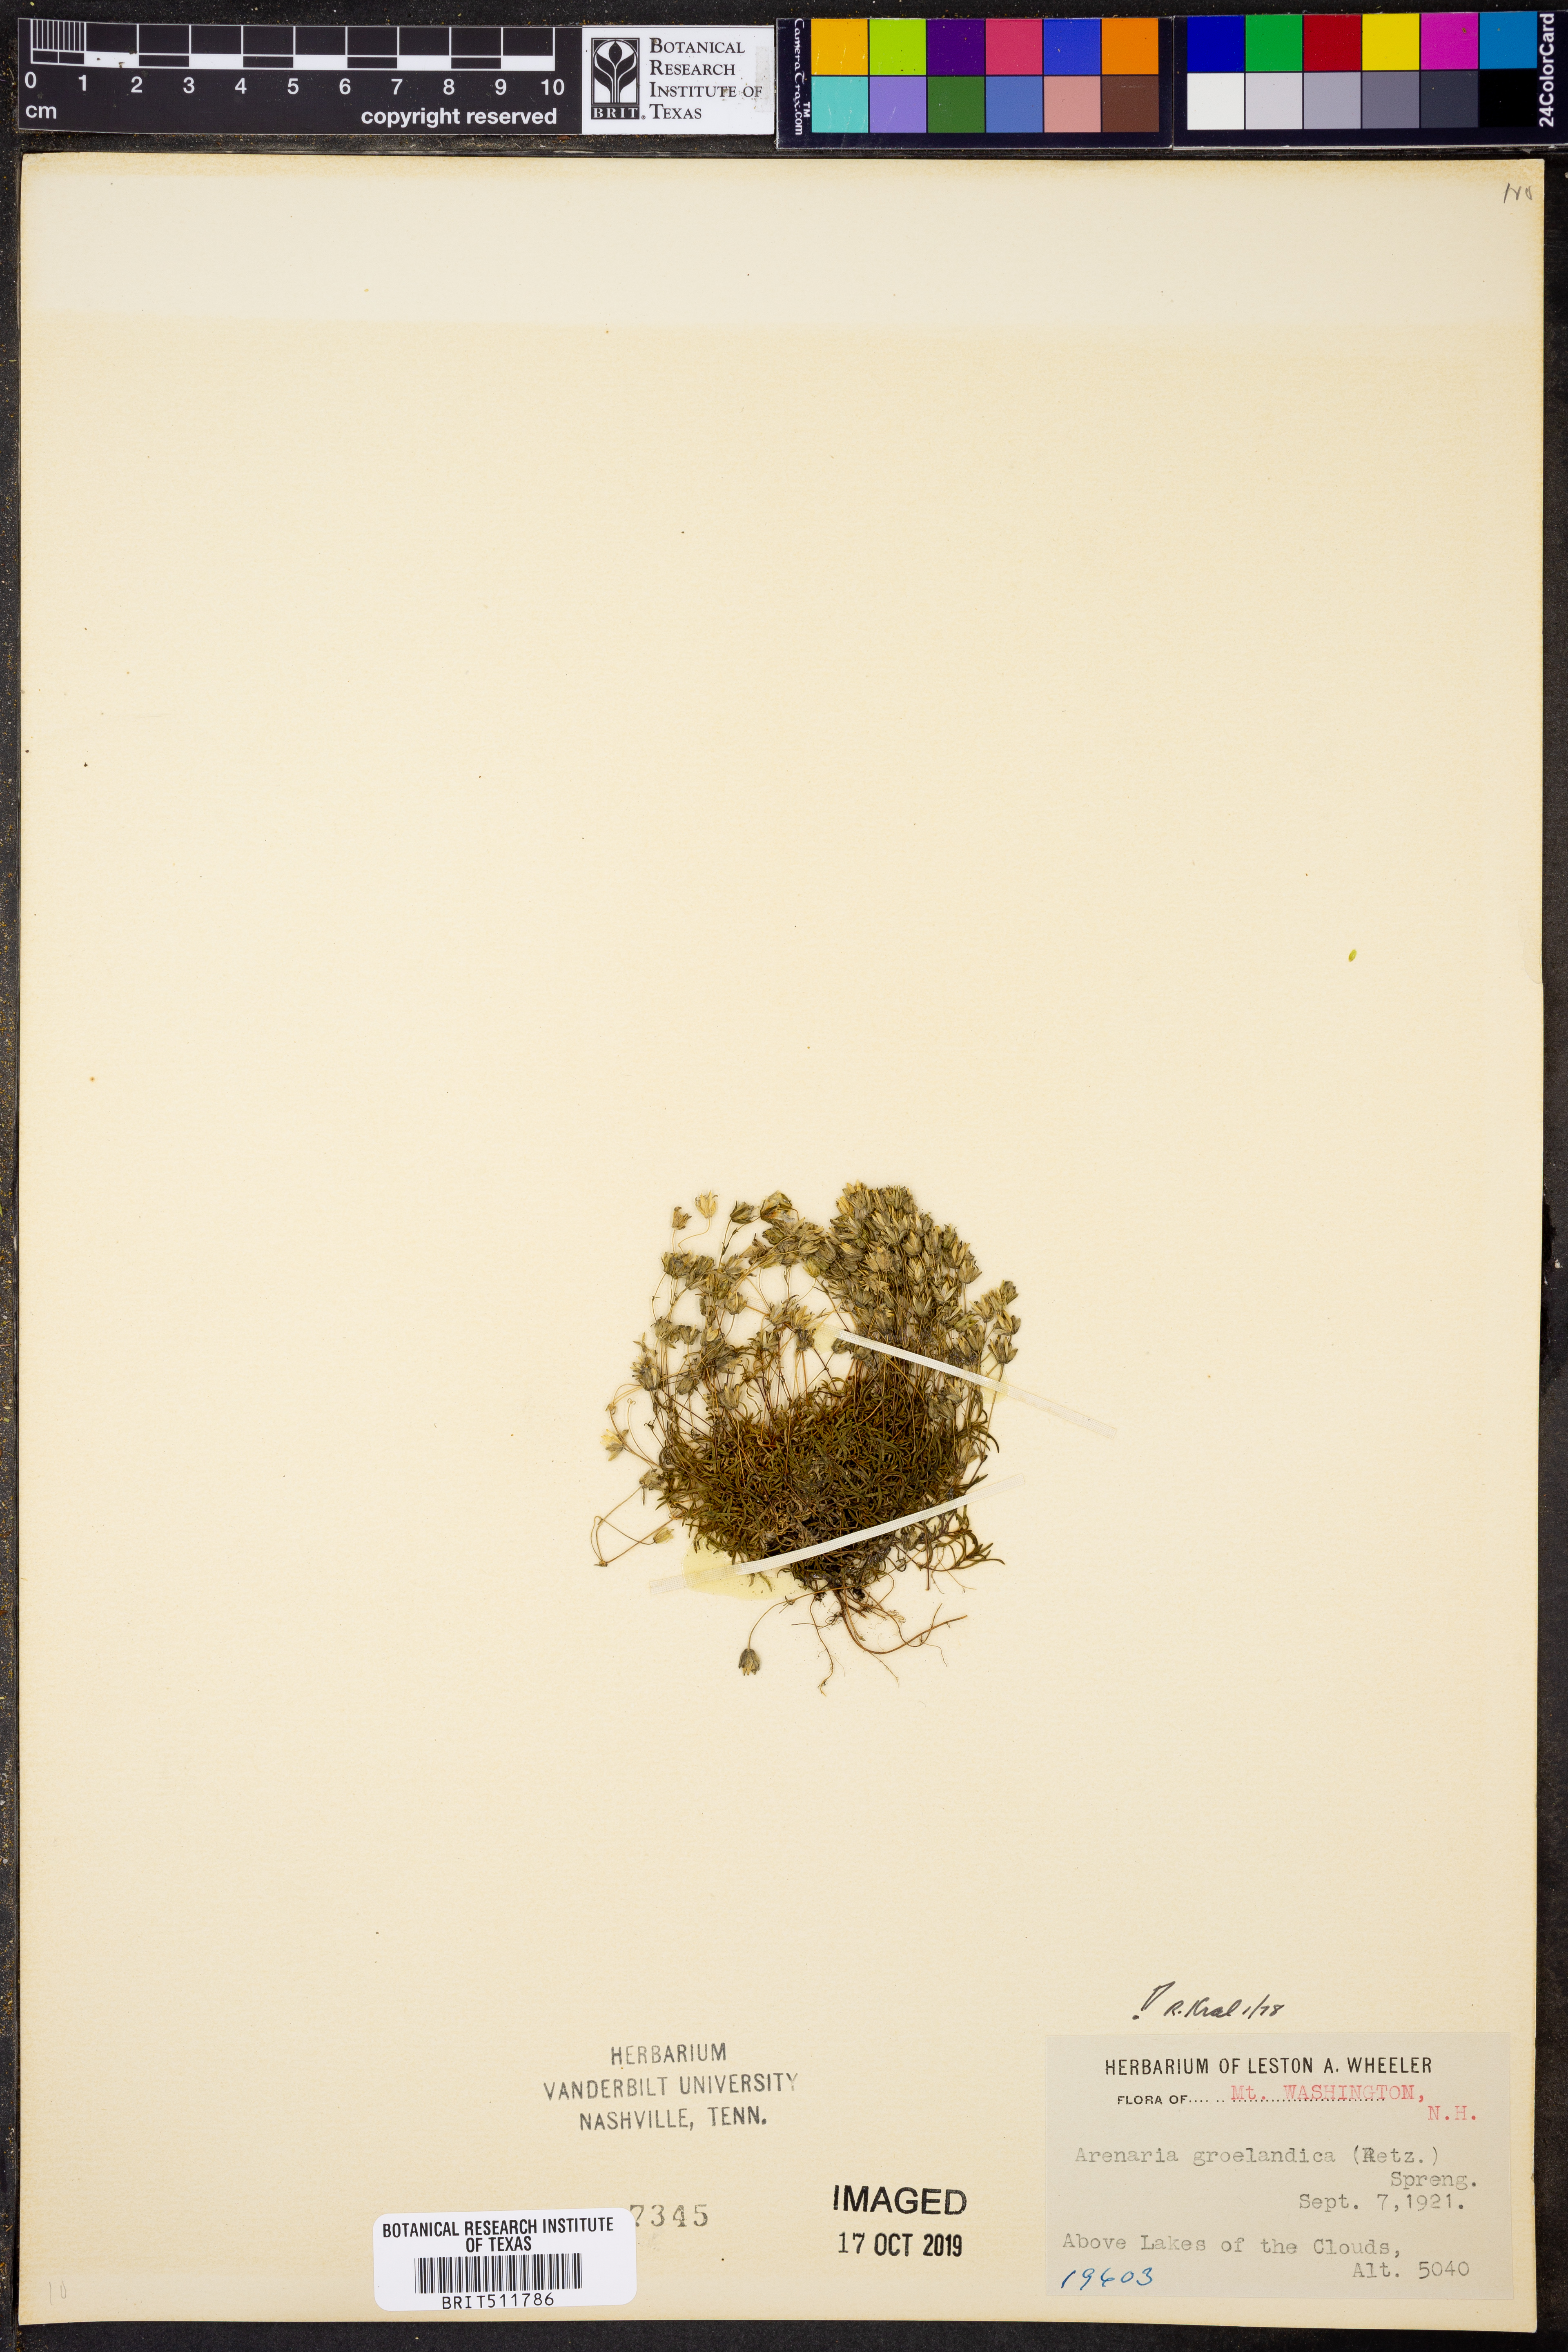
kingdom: Plantae
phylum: Tracheophyta
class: Magnoliopsida
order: Caryophyllales
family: Caryophyllaceae
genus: Geocarpon
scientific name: Geocarpon groenlandicum
